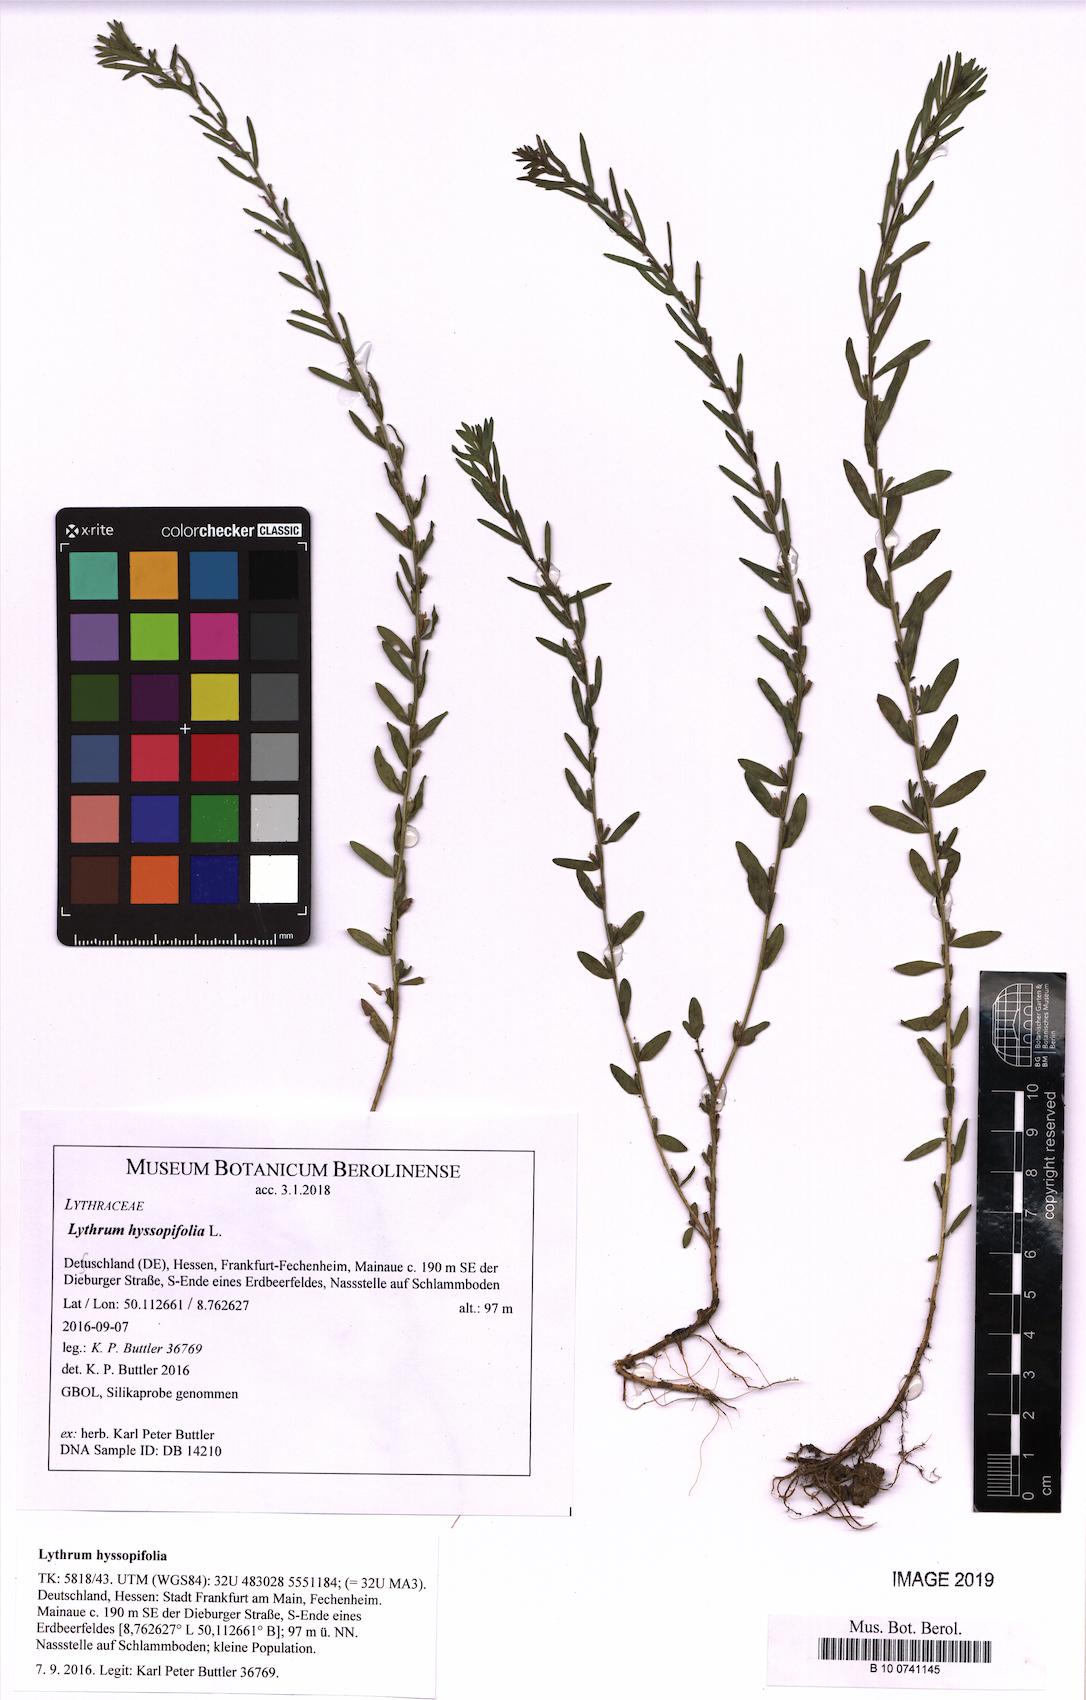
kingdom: Plantae
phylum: Tracheophyta
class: Magnoliopsida
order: Myrtales
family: Lythraceae
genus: Lythrum
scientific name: Lythrum hyssopifolia
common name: Grass-poly
